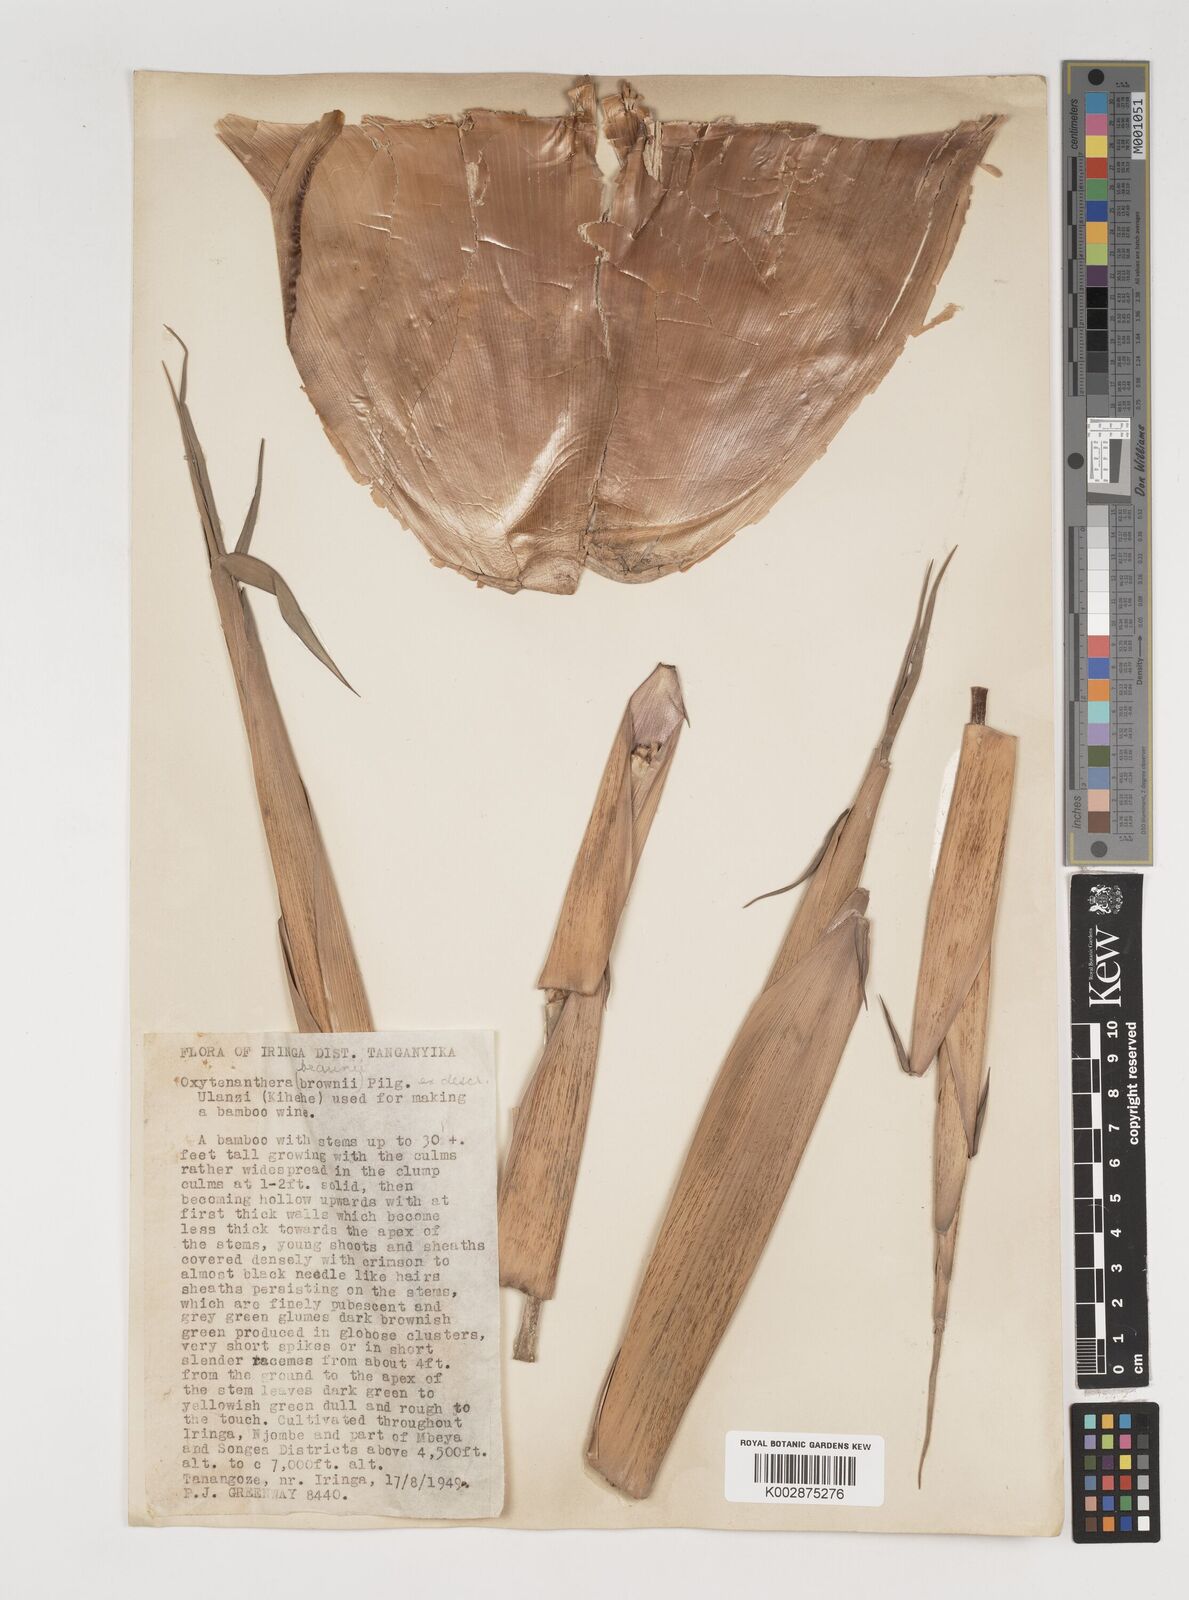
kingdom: Plantae
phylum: Tracheophyta
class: Liliopsida
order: Poales
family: Poaceae
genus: Oxytenanthera
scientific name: Oxytenanthera abyssinica
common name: Wine bamboo
